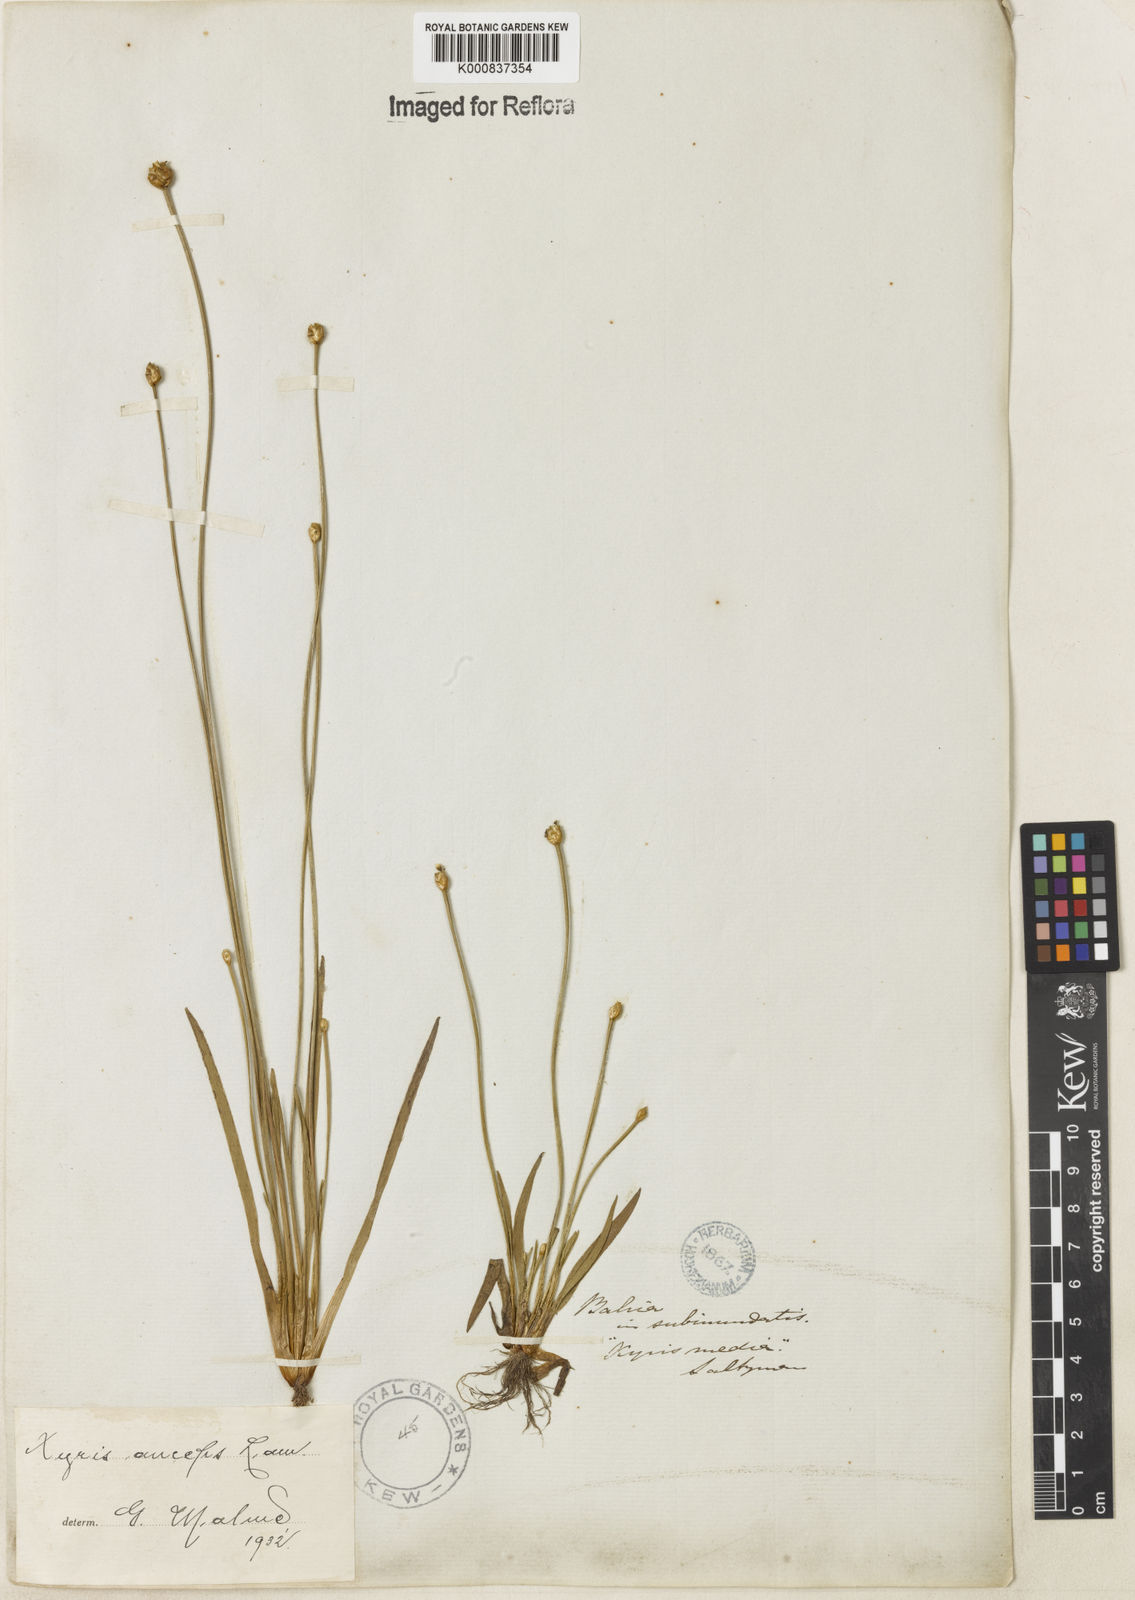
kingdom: Plantae
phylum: Tracheophyta
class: Liliopsida
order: Poales
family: Xyridaceae
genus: Xyris
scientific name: Xyris
